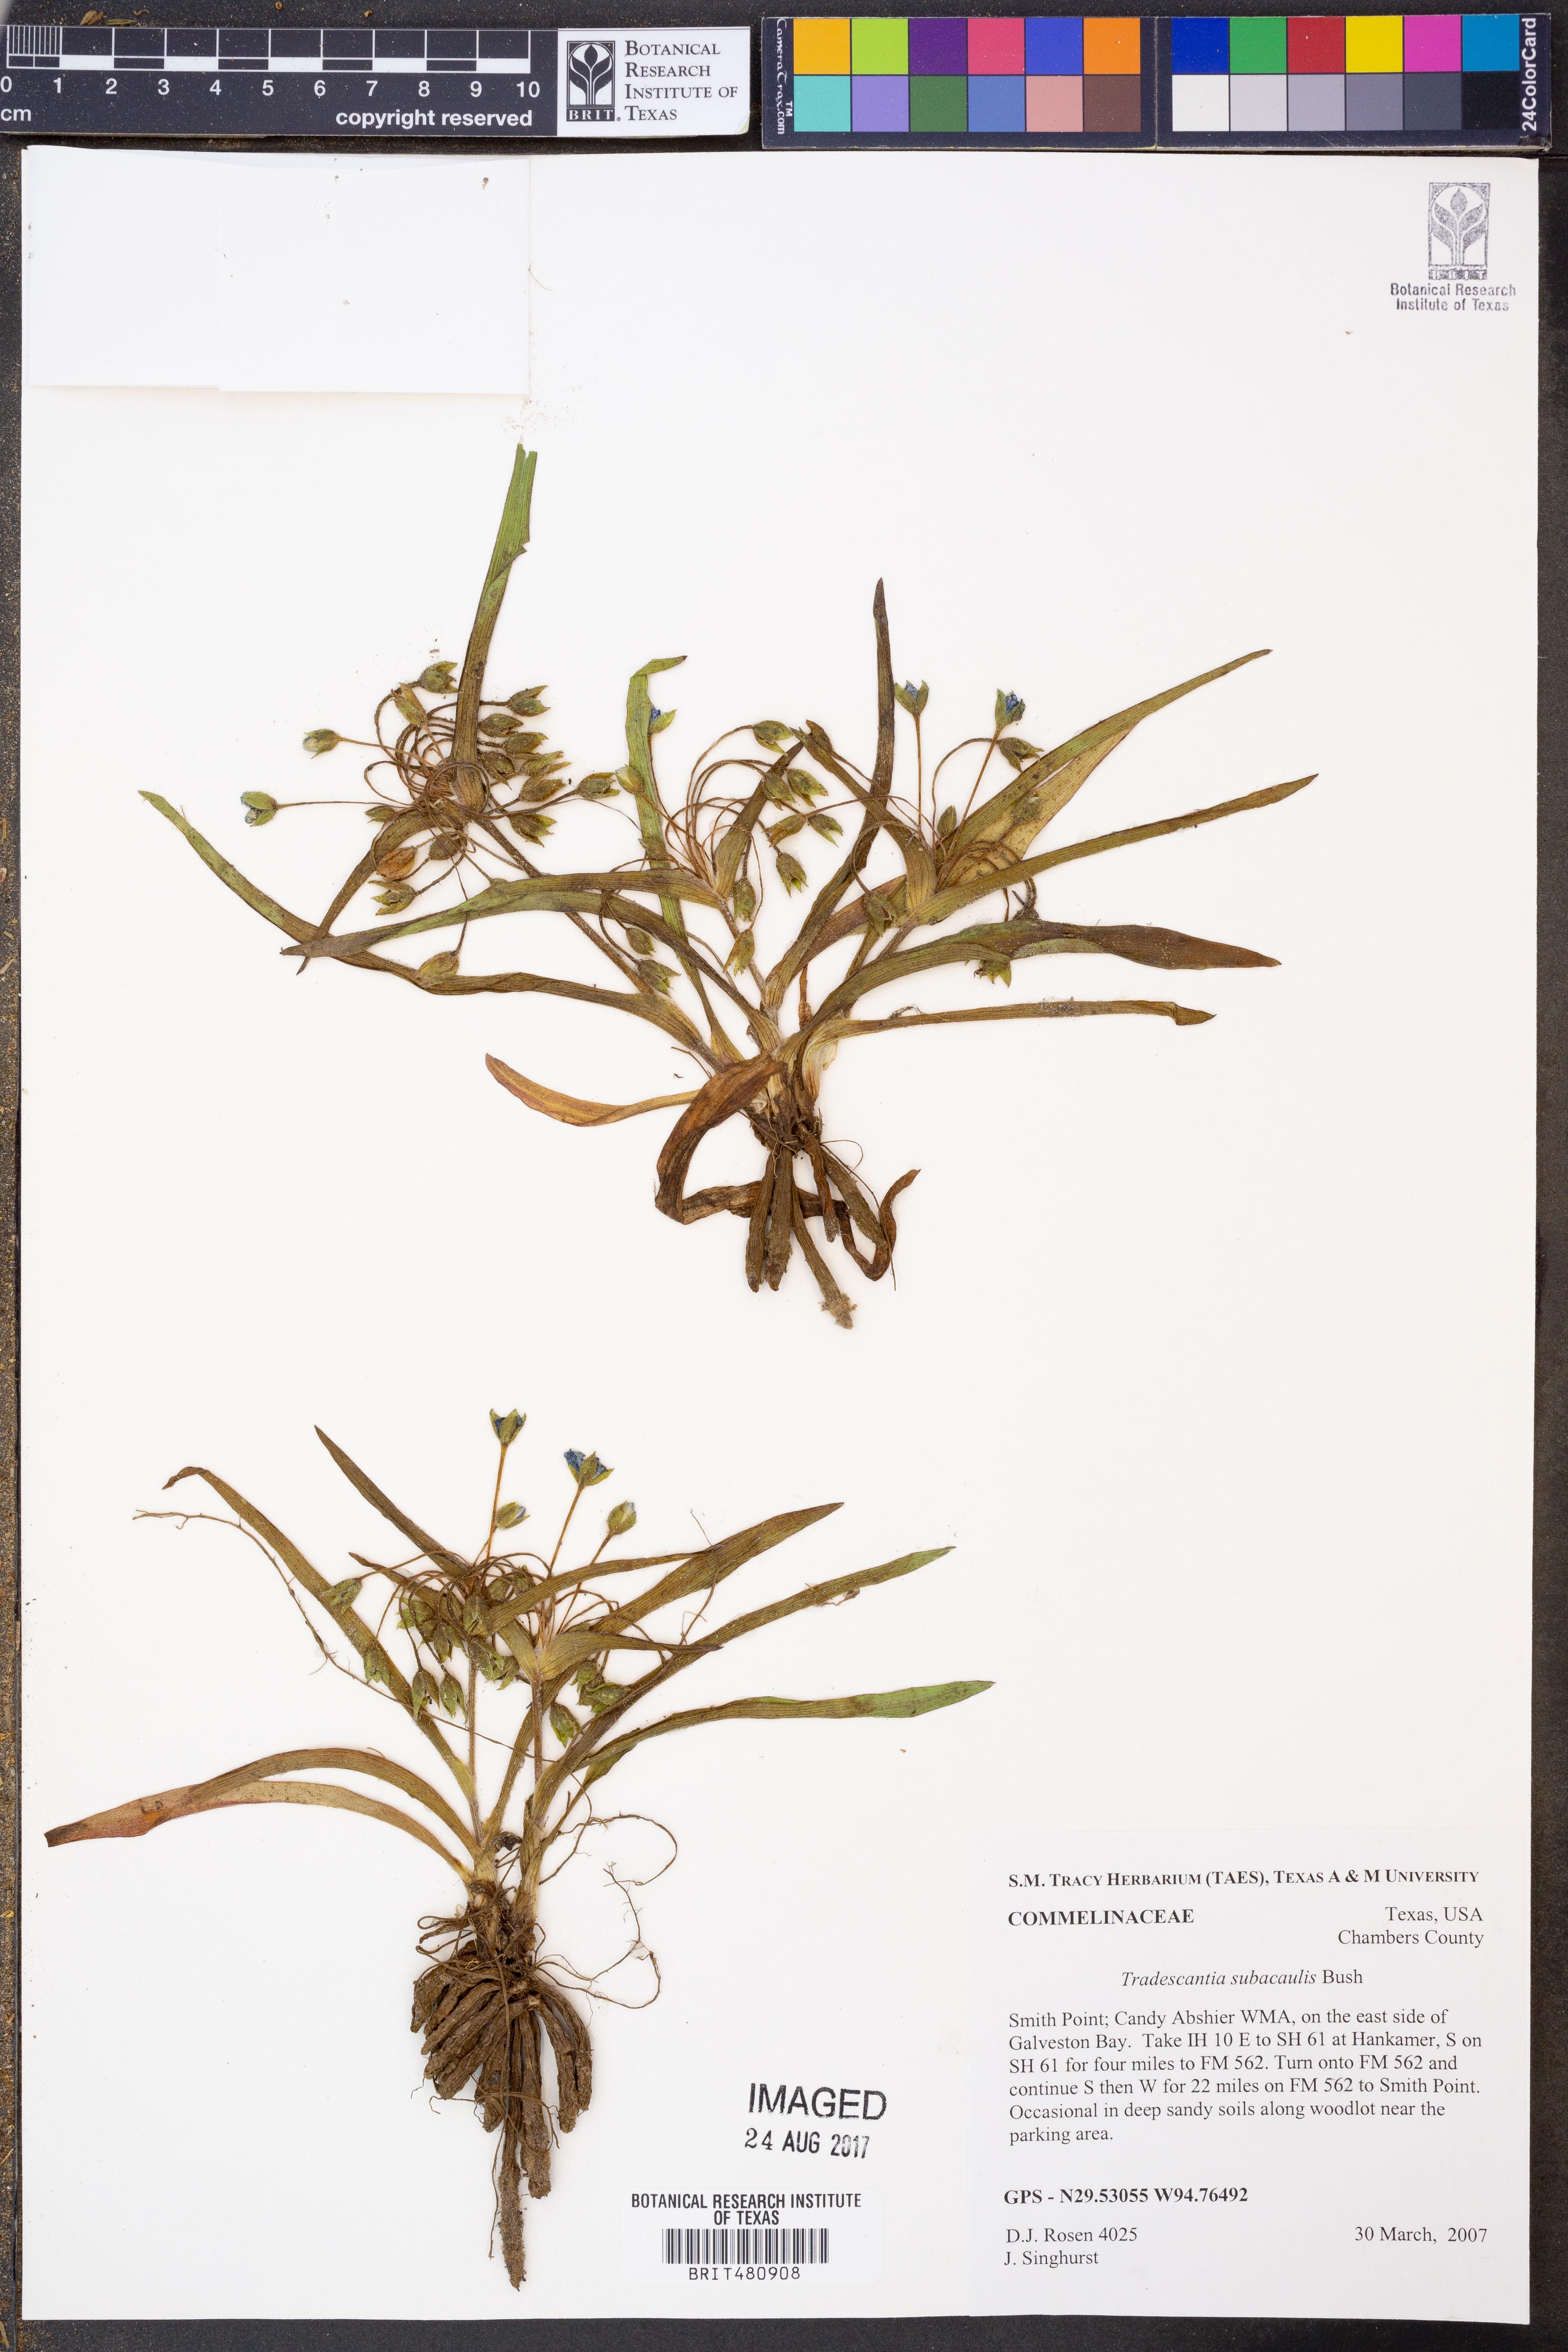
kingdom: Plantae
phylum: Tracheophyta
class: Liliopsida
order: Commelinales
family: Commelinaceae
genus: Tradescantia
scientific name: Tradescantia subacaulis
